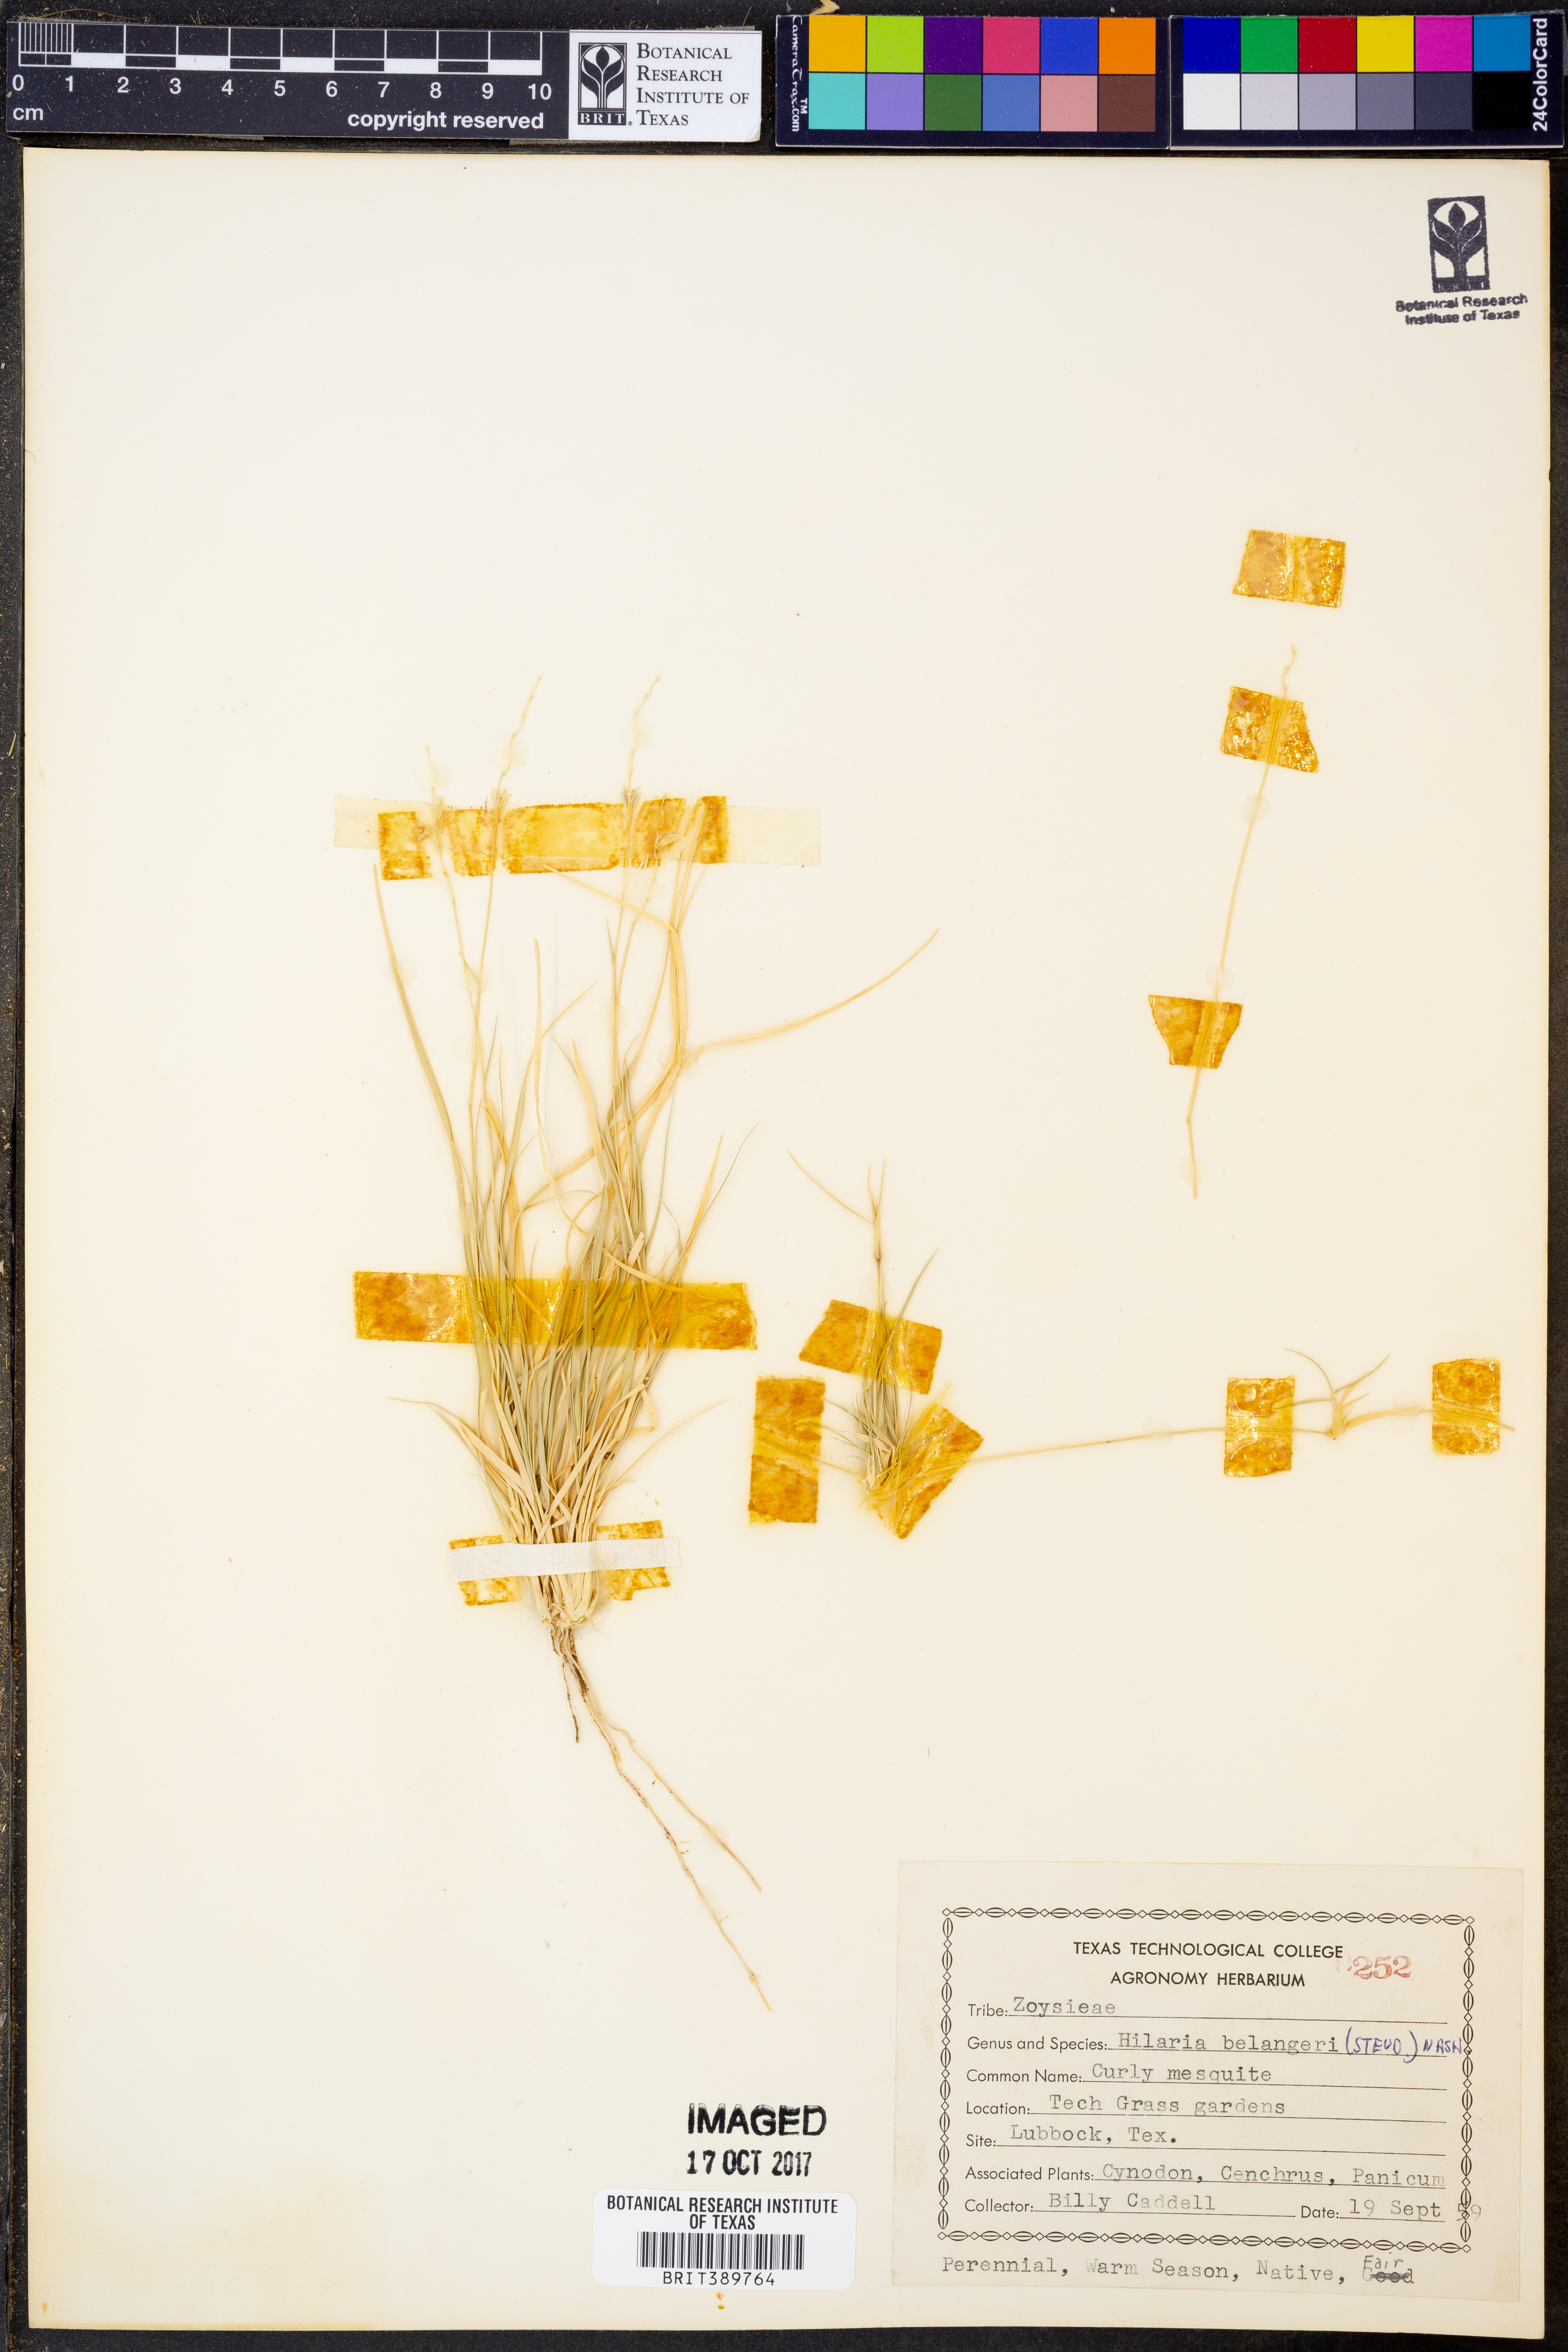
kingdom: Plantae
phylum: Tracheophyta
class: Liliopsida
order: Poales
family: Poaceae
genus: Hilaria
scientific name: Hilaria belangeri
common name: Curly-mesquite
